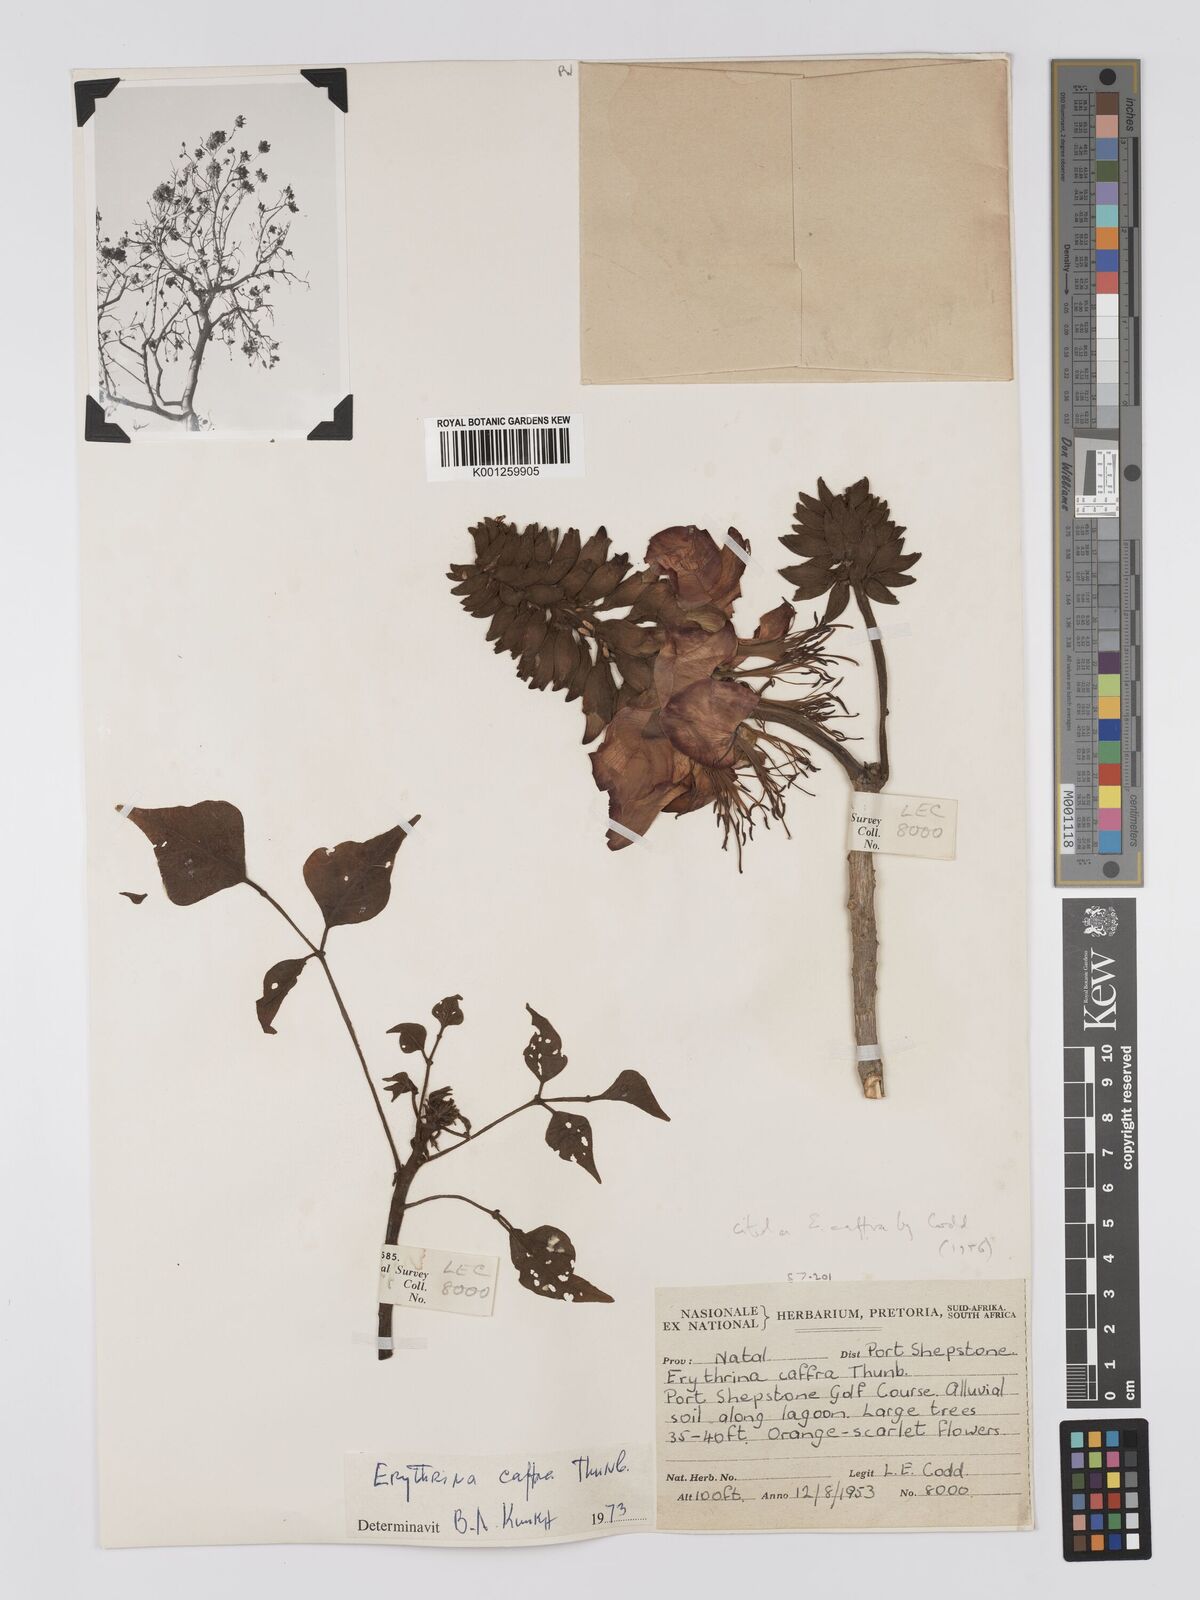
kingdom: Plantae
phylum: Tracheophyta
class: Magnoliopsida
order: Fabales
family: Fabaceae
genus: Erythrina
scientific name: Erythrina caffra
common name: Coast coral tree
